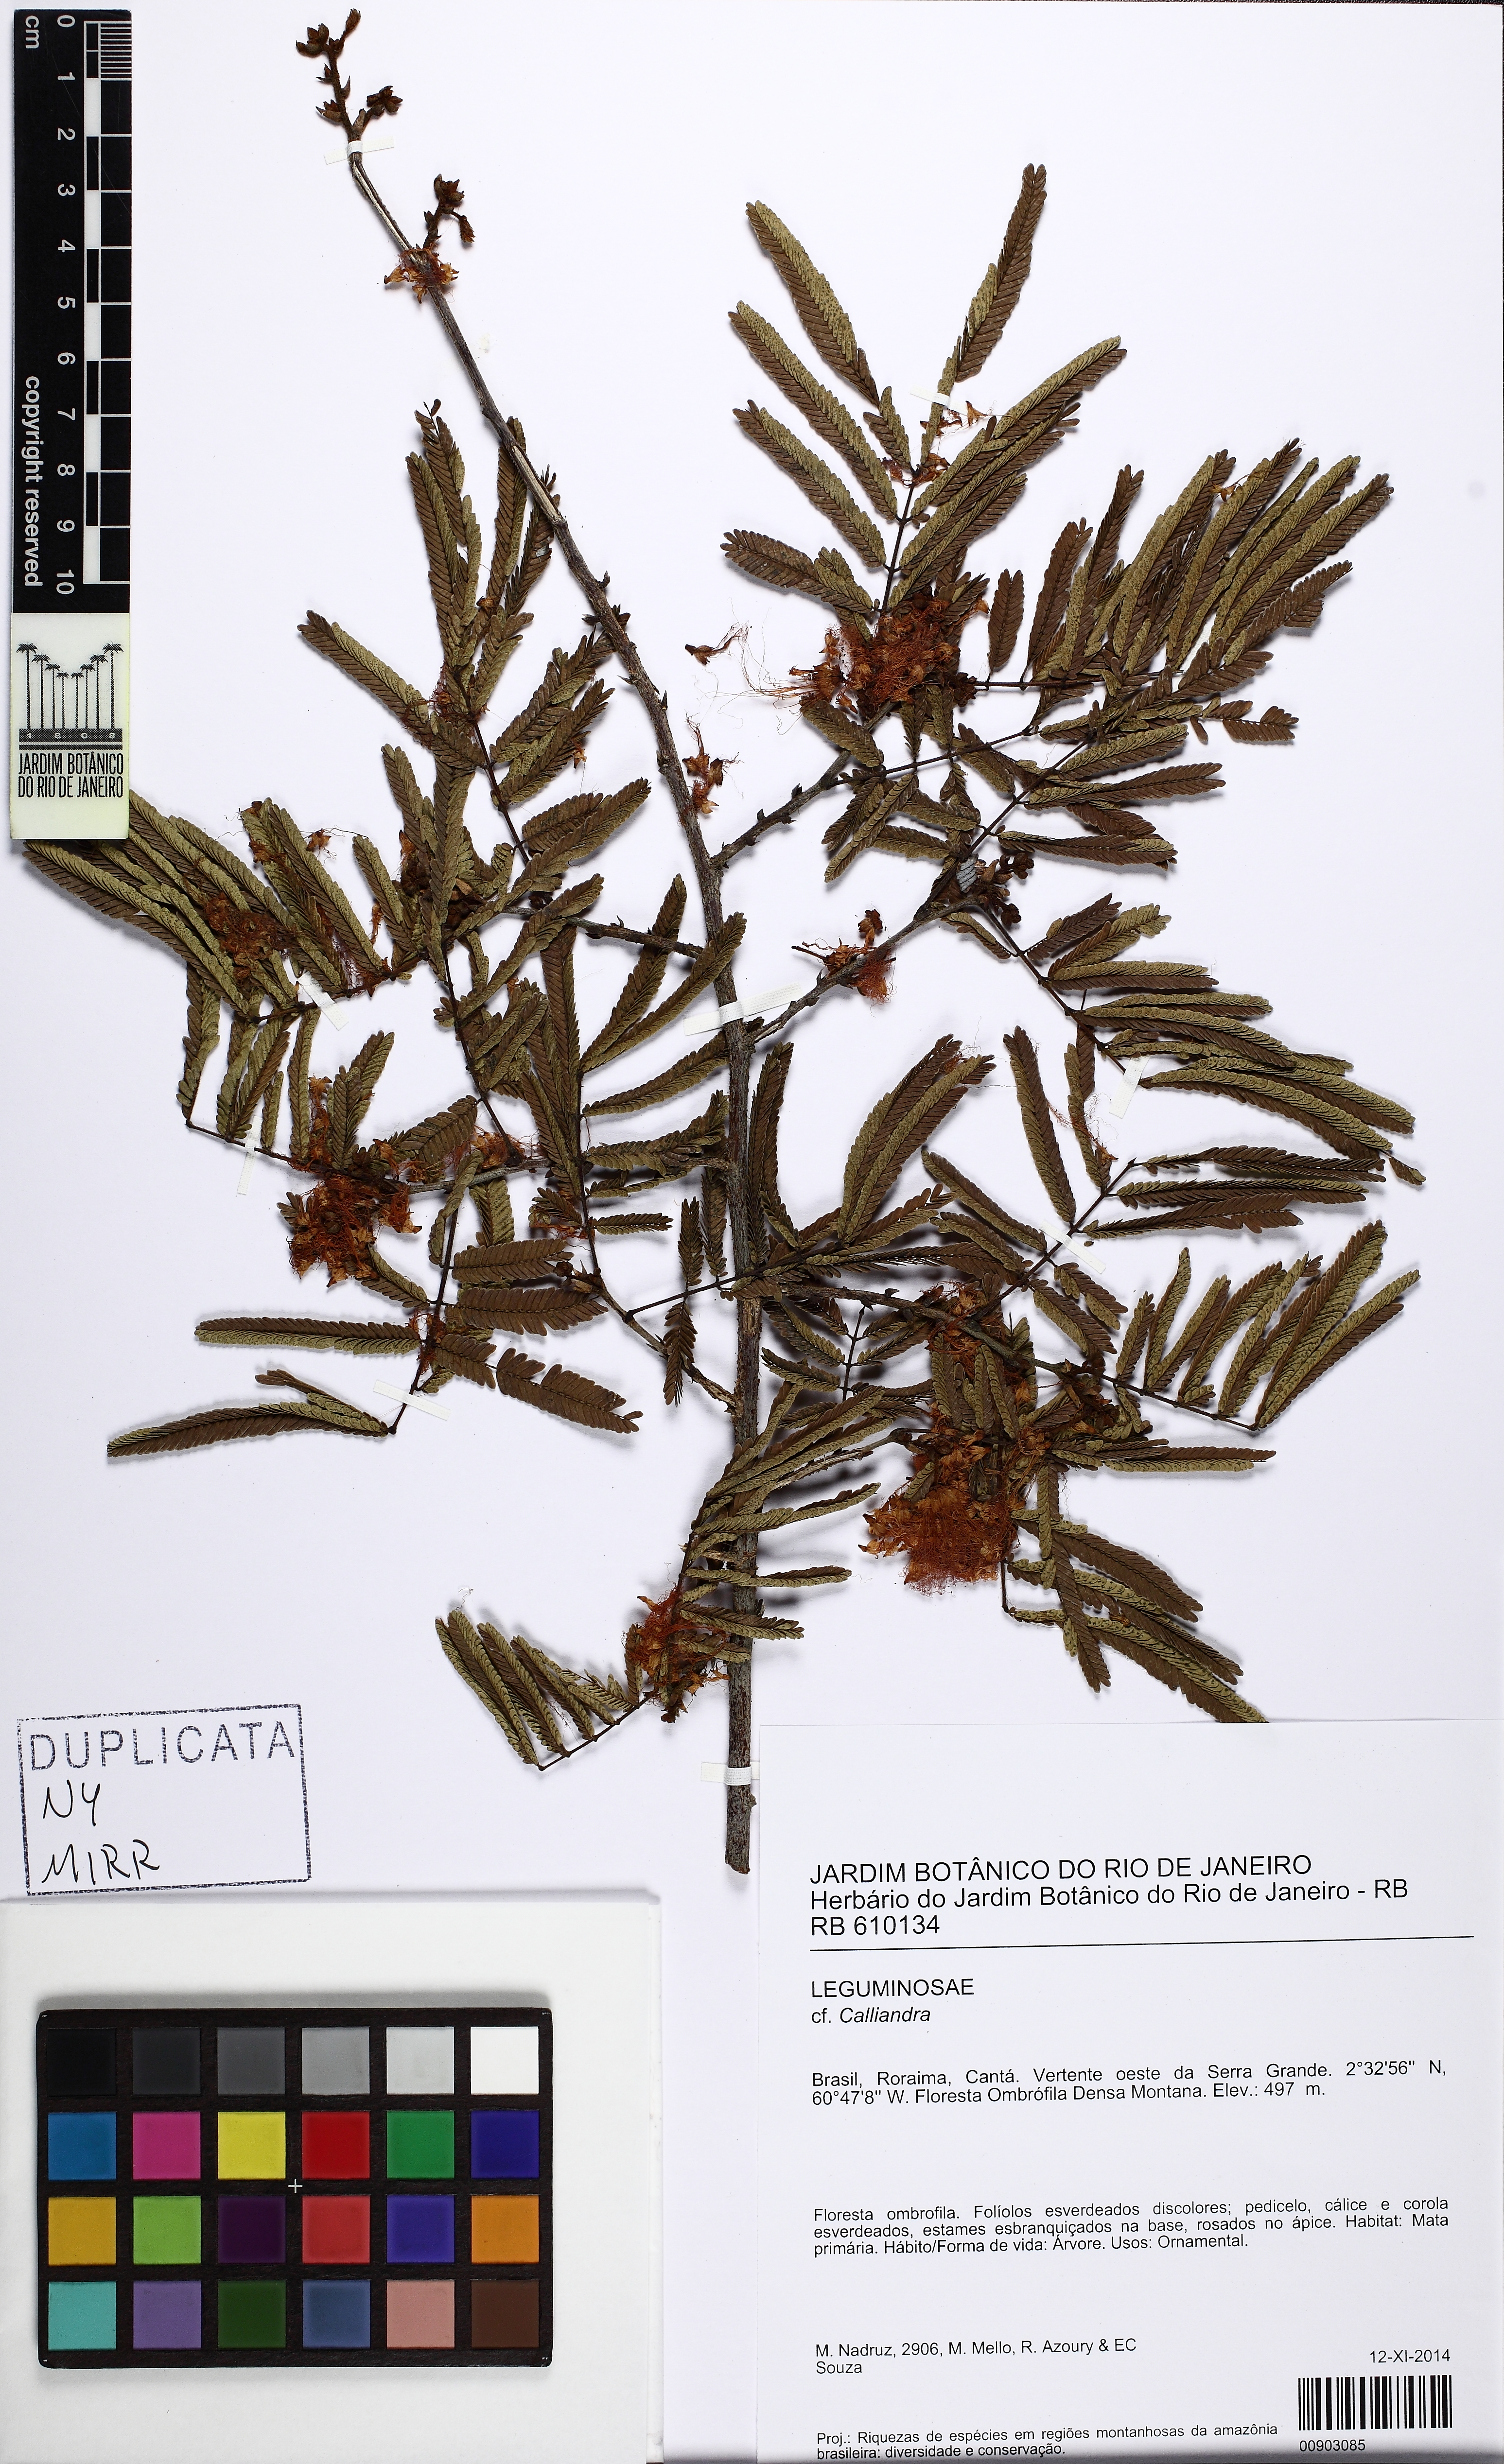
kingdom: Plantae
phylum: Tracheophyta
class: Magnoliopsida
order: Fabales
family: Fabaceae
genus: Calliandra
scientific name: Calliandra
